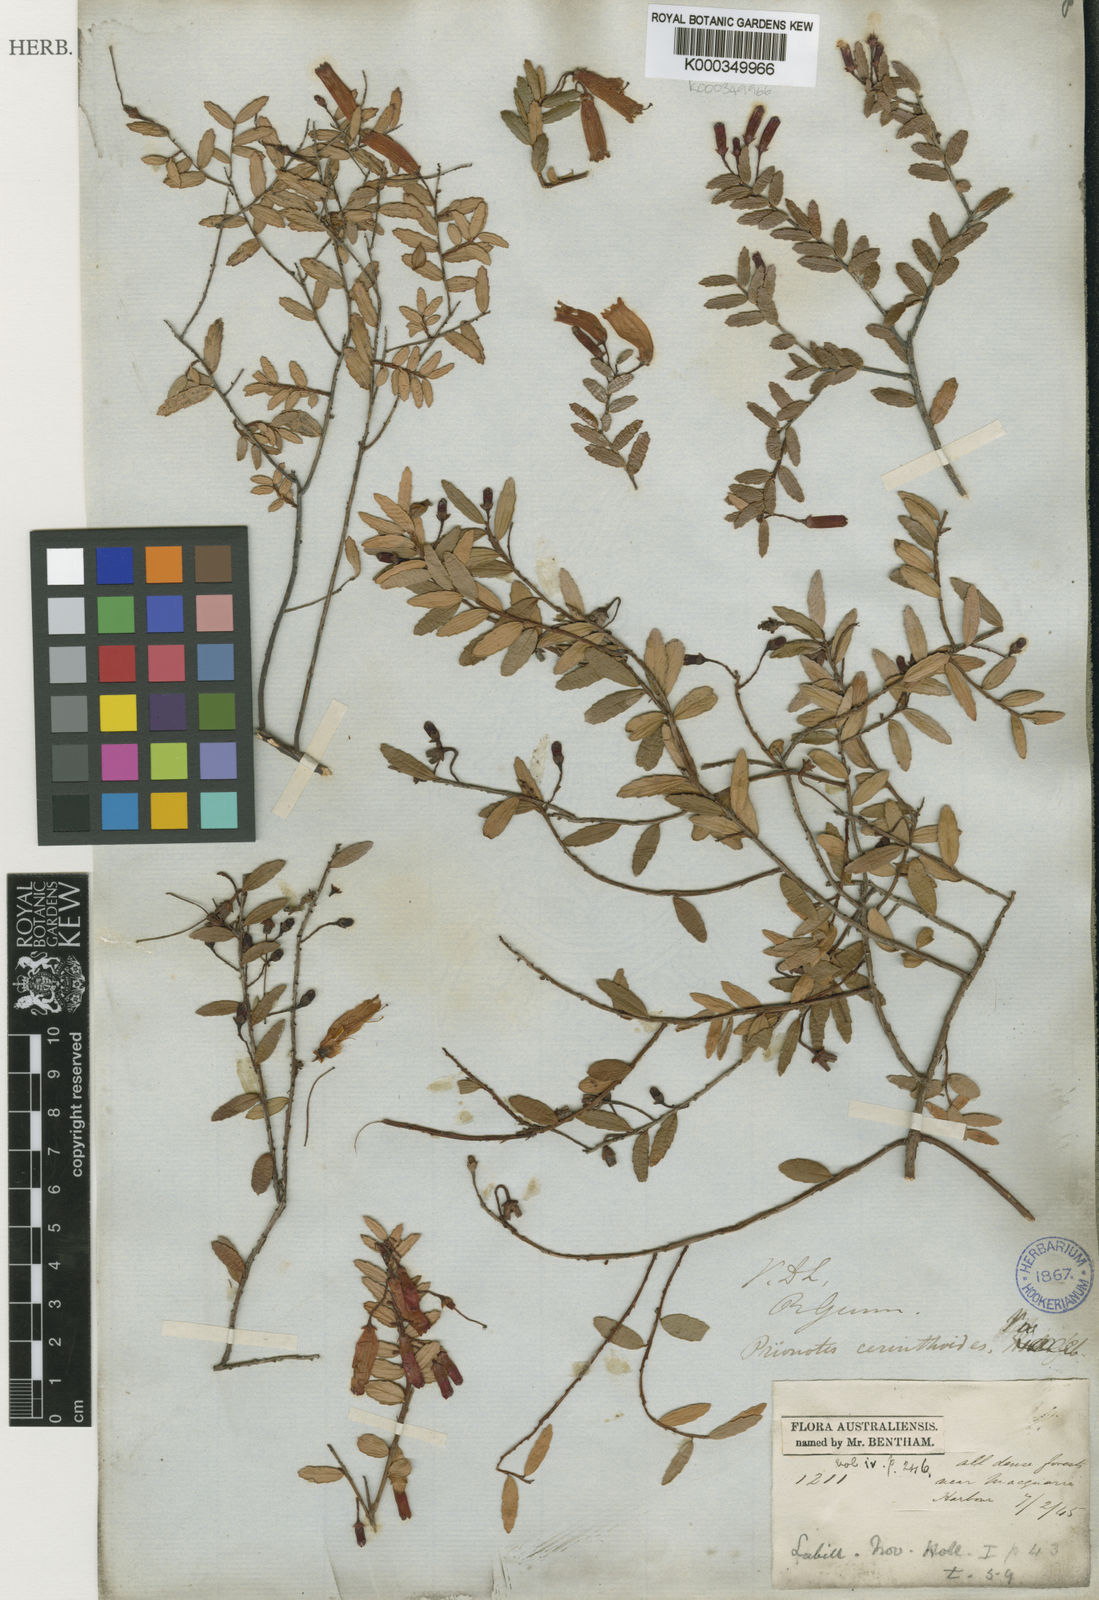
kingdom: Plantae
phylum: Tracheophyta
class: Magnoliopsida
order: Ericales
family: Ericaceae
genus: Prionotes
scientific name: Prionotes cerinthoides
